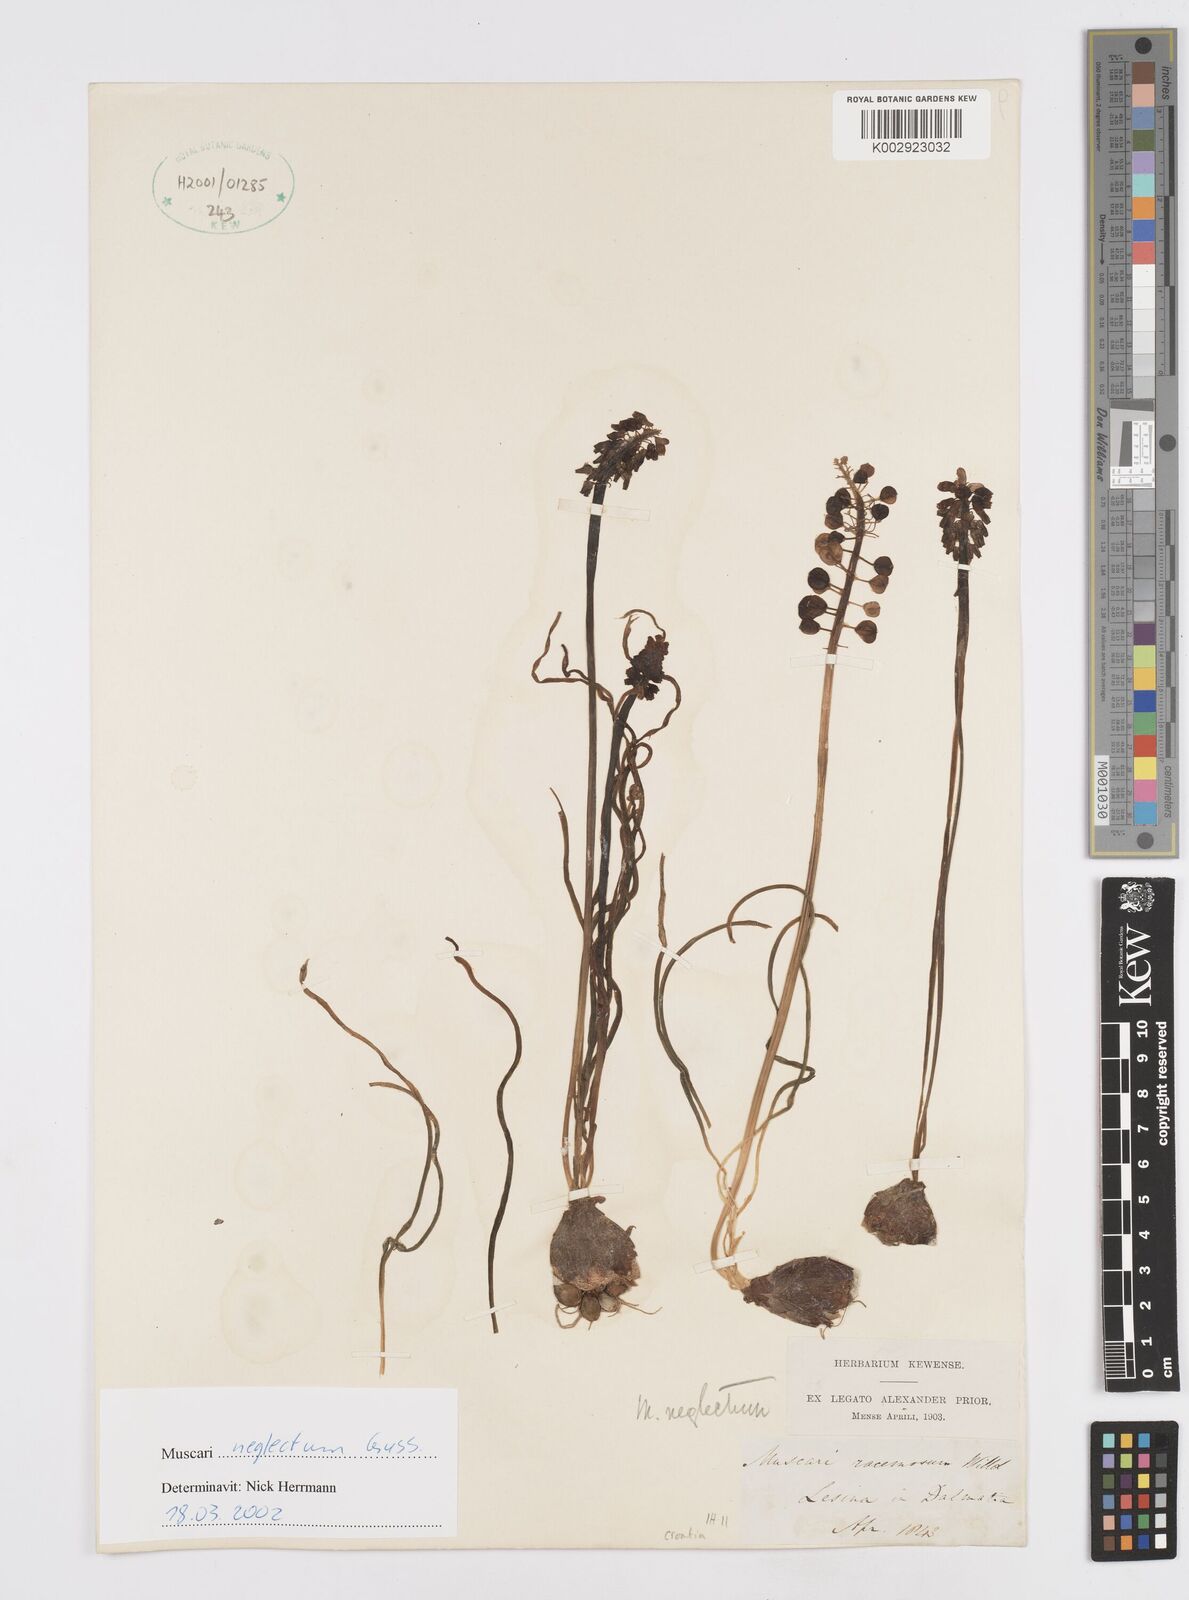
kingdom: Plantae
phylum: Tracheophyta
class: Liliopsida
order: Asparagales
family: Asparagaceae
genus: Muscari
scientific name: Muscari neglectum
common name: Grape-hyacinth
